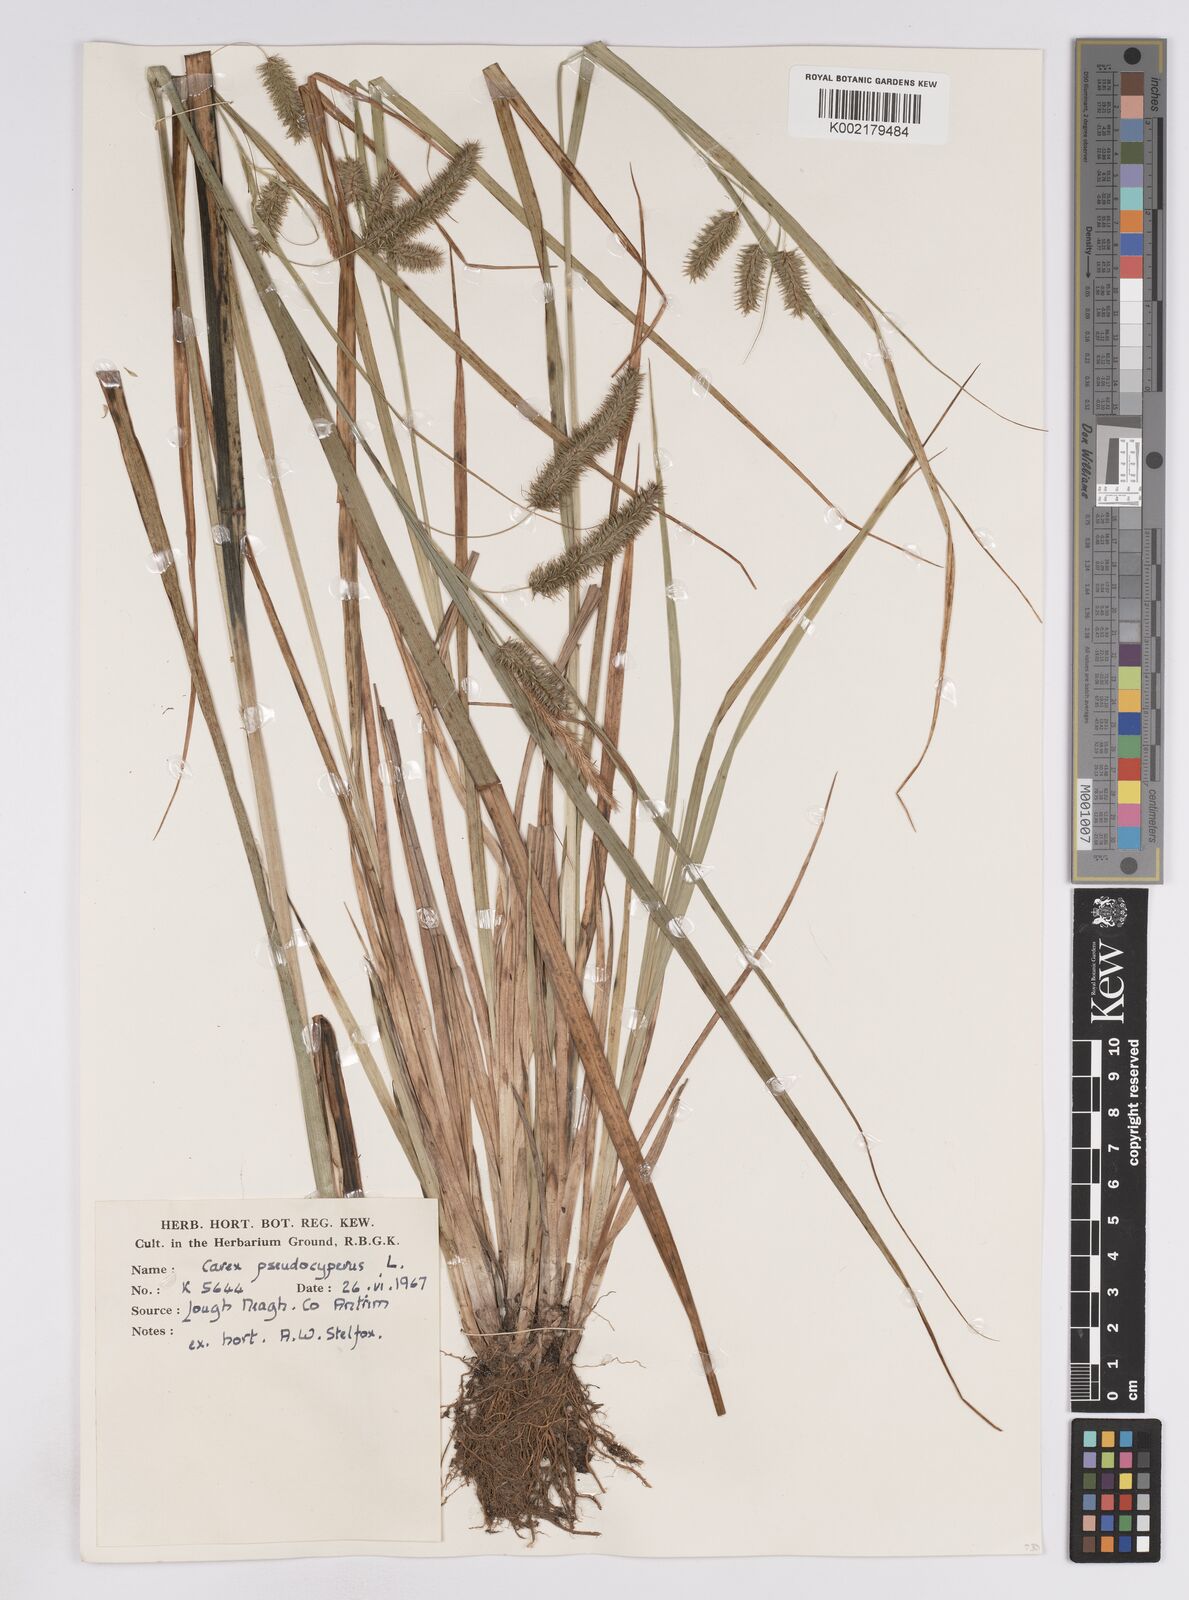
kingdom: Plantae
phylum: Tracheophyta
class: Liliopsida
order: Poales
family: Cyperaceae
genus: Carex
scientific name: Carex pseudocyperus
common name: Cyperus sedge
